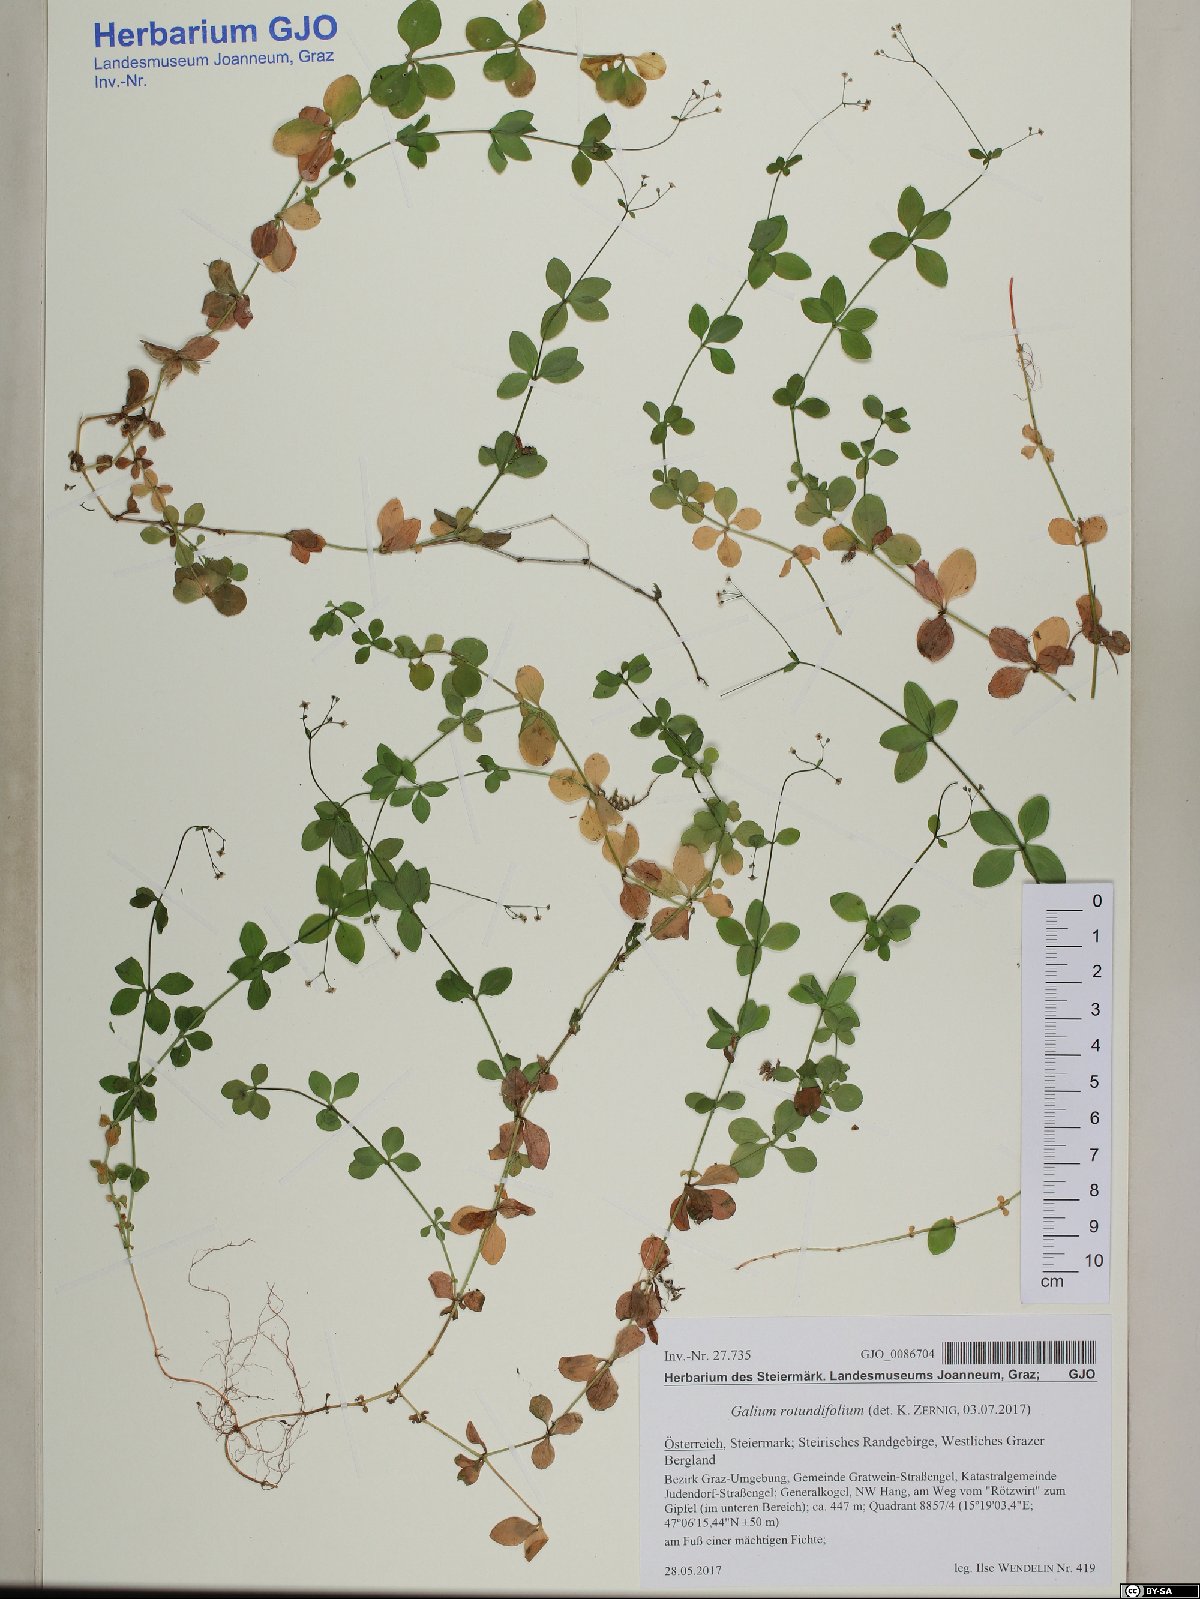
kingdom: Plantae
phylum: Tracheophyta
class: Magnoliopsida
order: Gentianales
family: Rubiaceae
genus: Galium
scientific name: Galium rotundifolium
